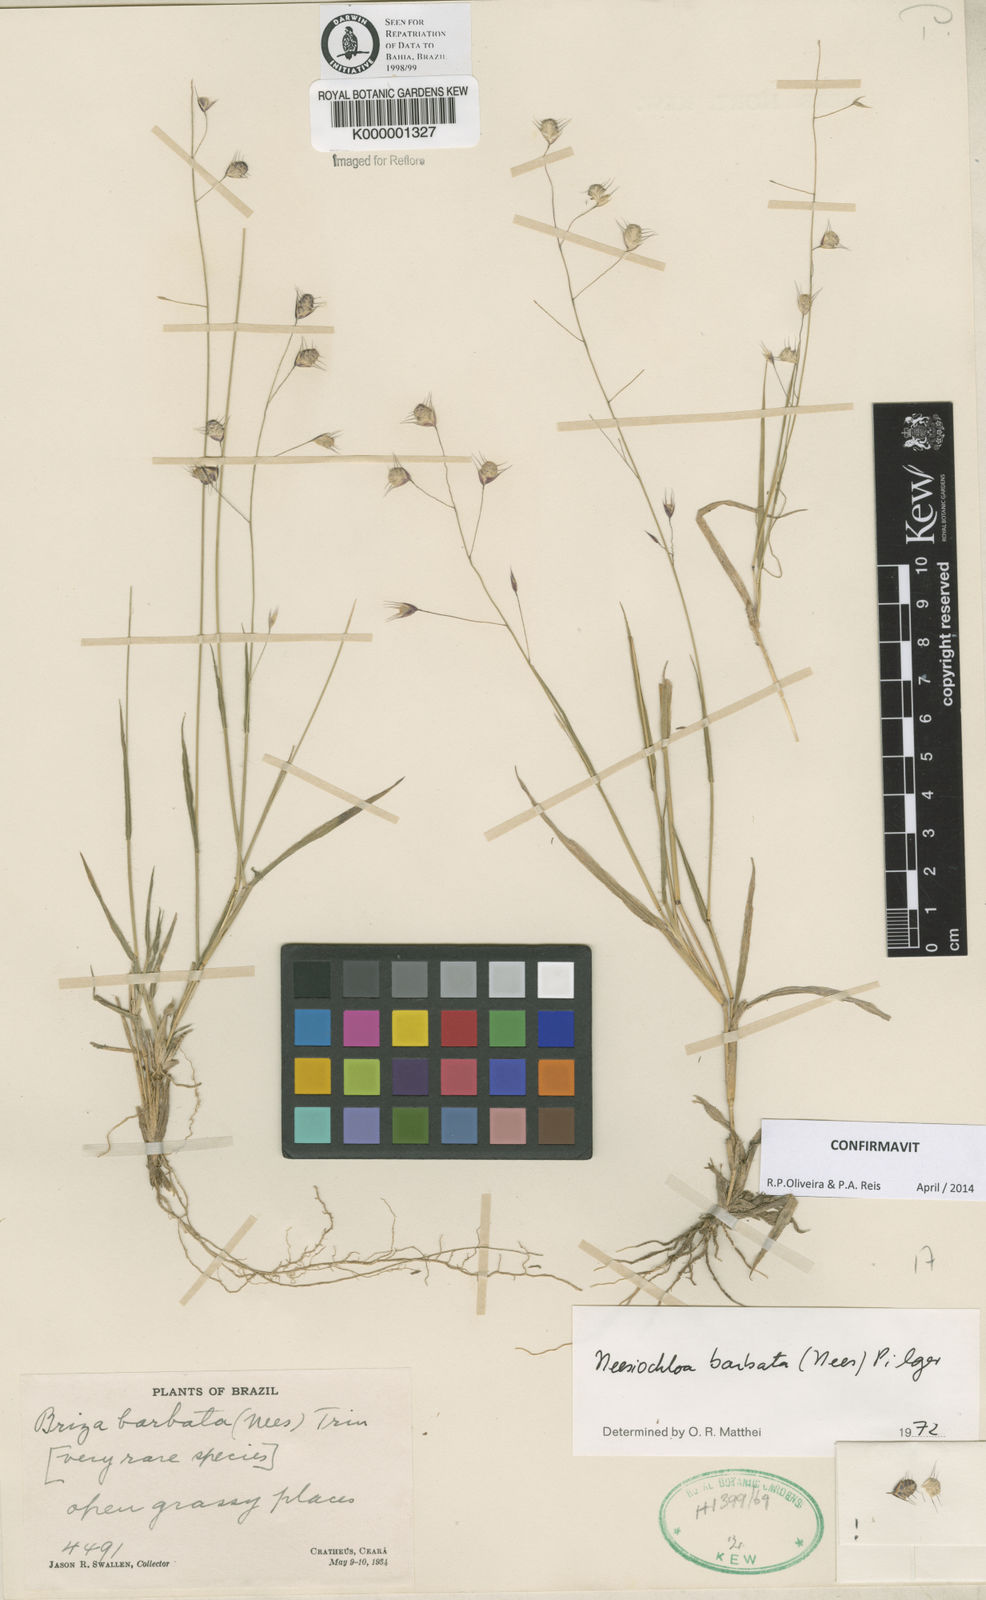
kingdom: Plantae
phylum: Tracheophyta
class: Liliopsida
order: Poales
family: Poaceae
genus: Neesiochloa
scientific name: Neesiochloa barbata
